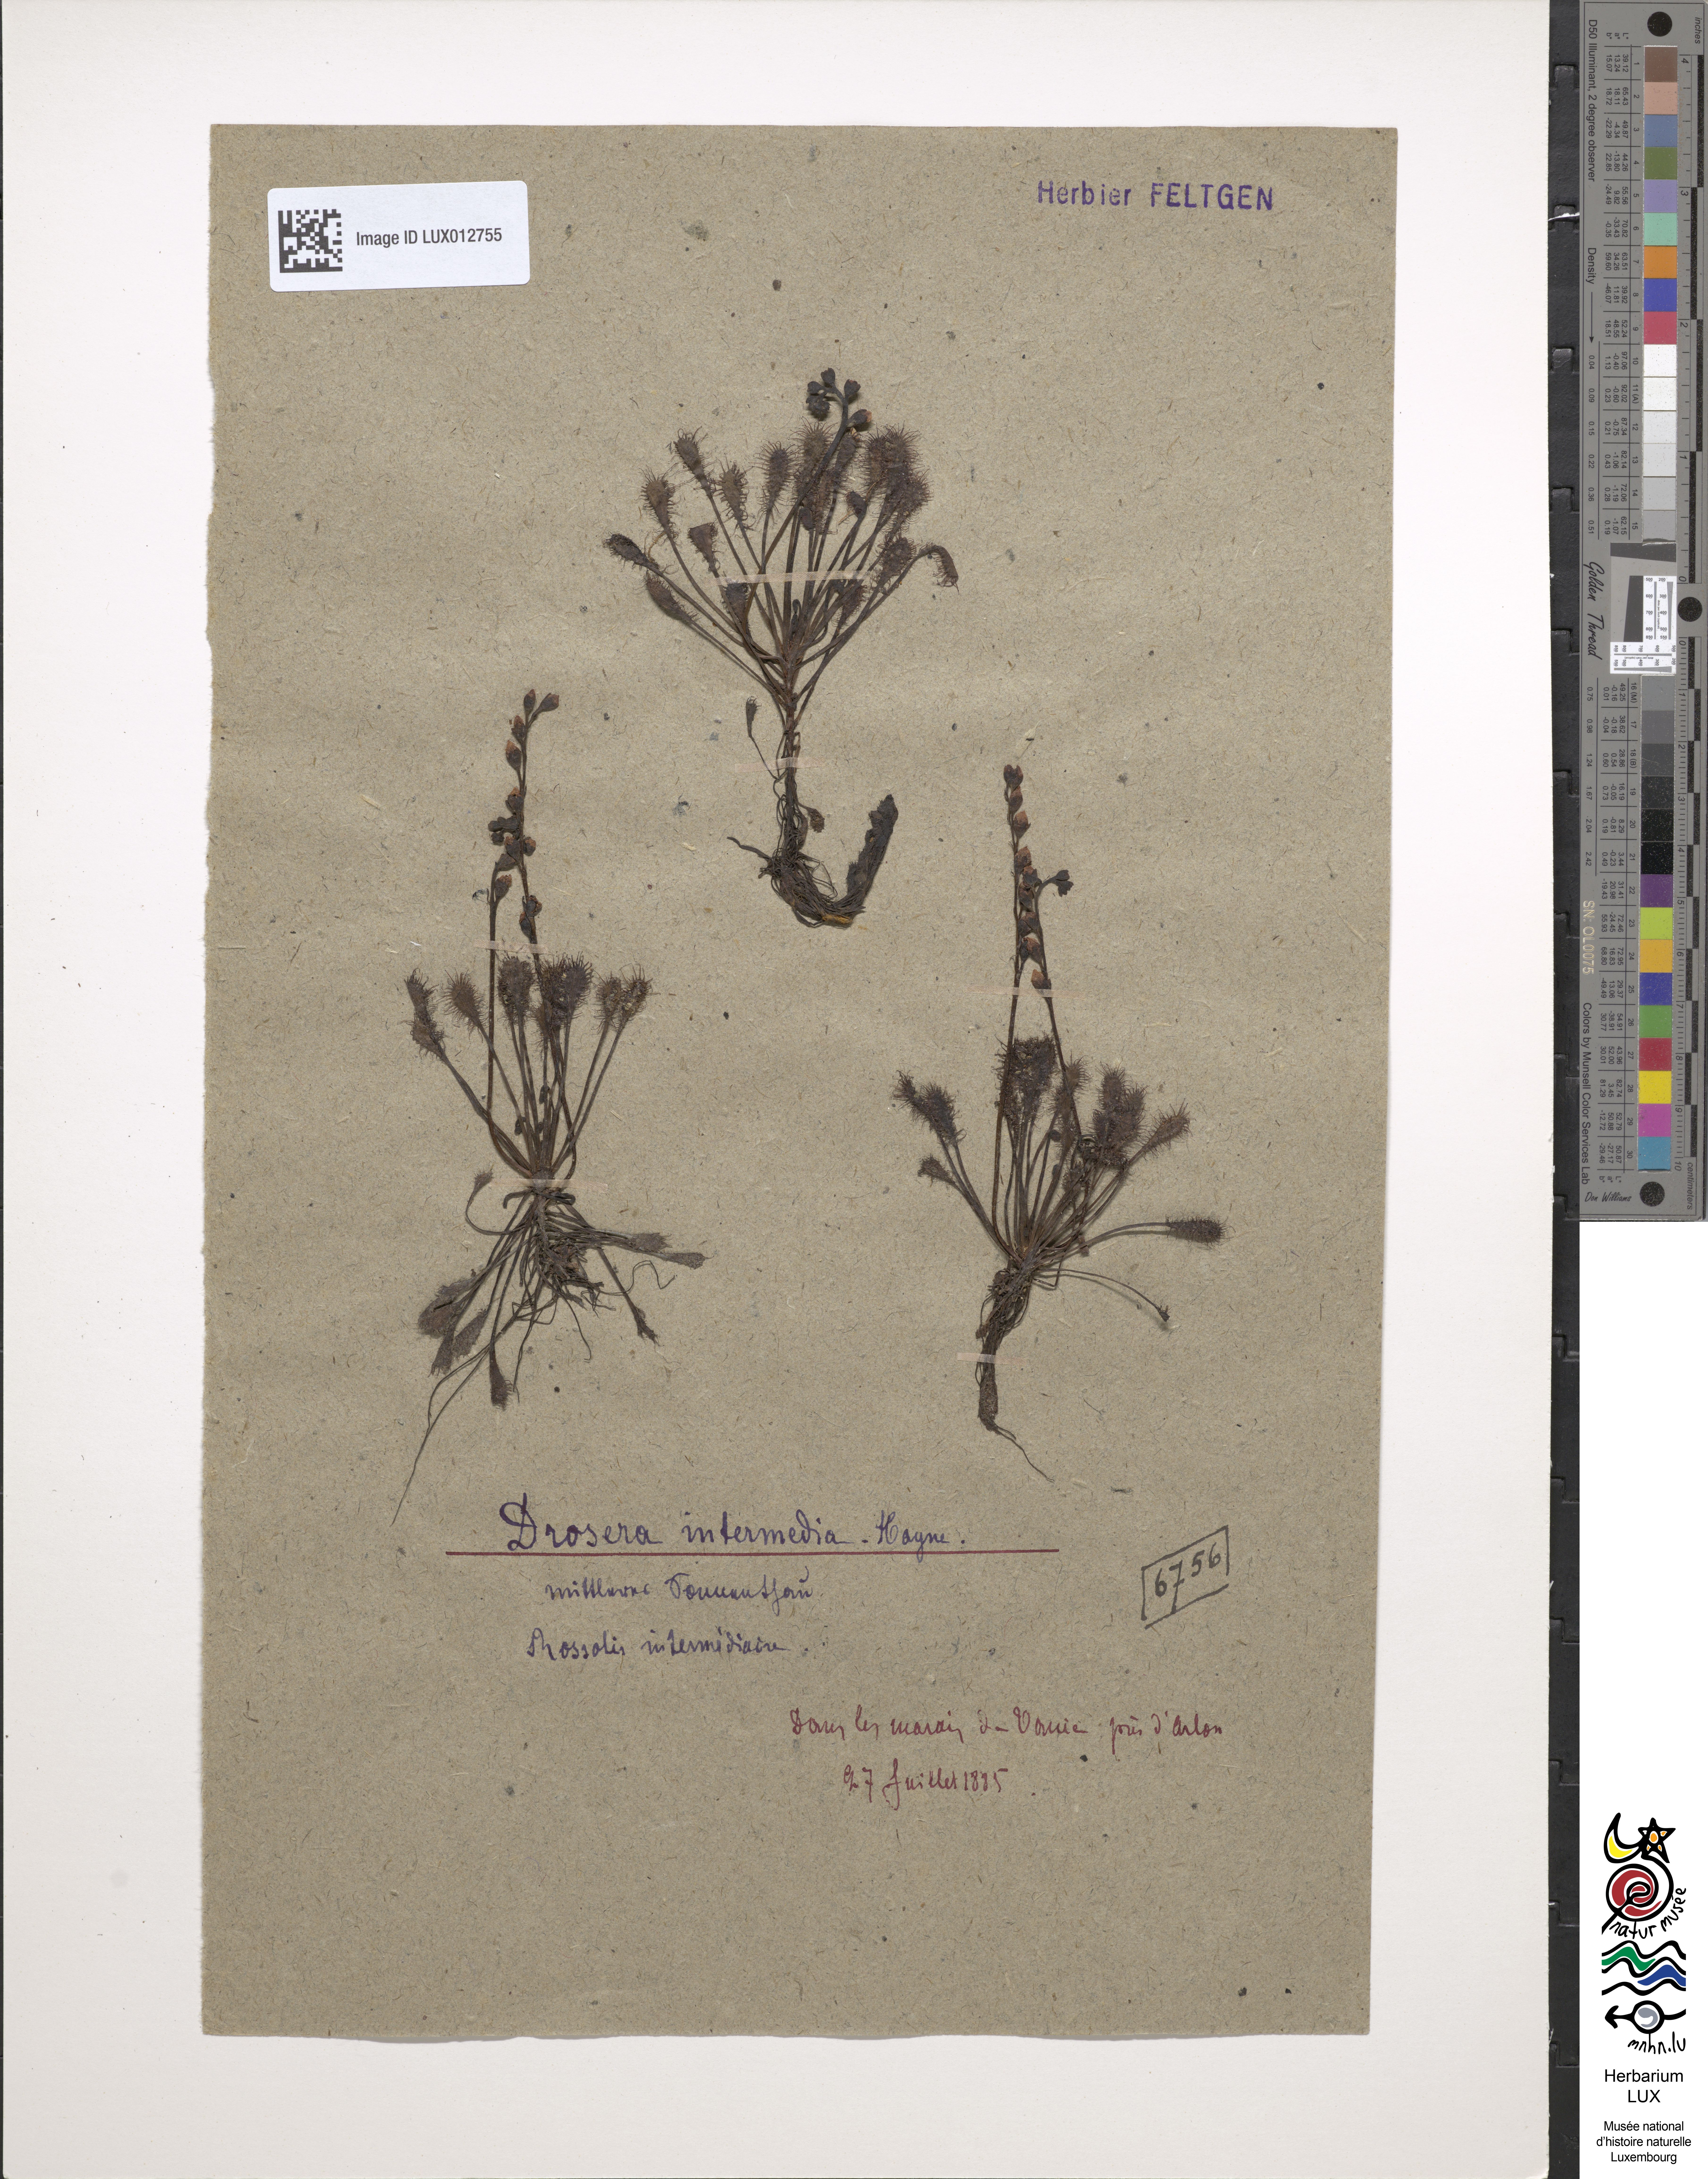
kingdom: Plantae
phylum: Tracheophyta
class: Magnoliopsida
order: Caryophyllales
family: Droseraceae
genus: Drosera
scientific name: Drosera intermedia
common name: Oblong-leaved sundew
